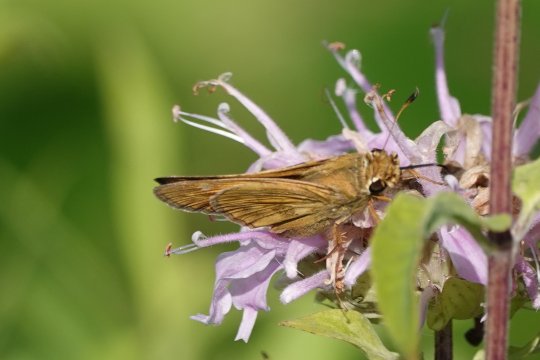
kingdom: Animalia
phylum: Arthropoda
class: Insecta
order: Lepidoptera
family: Hesperiidae
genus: Atalopedes
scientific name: Atalopedes campestris
